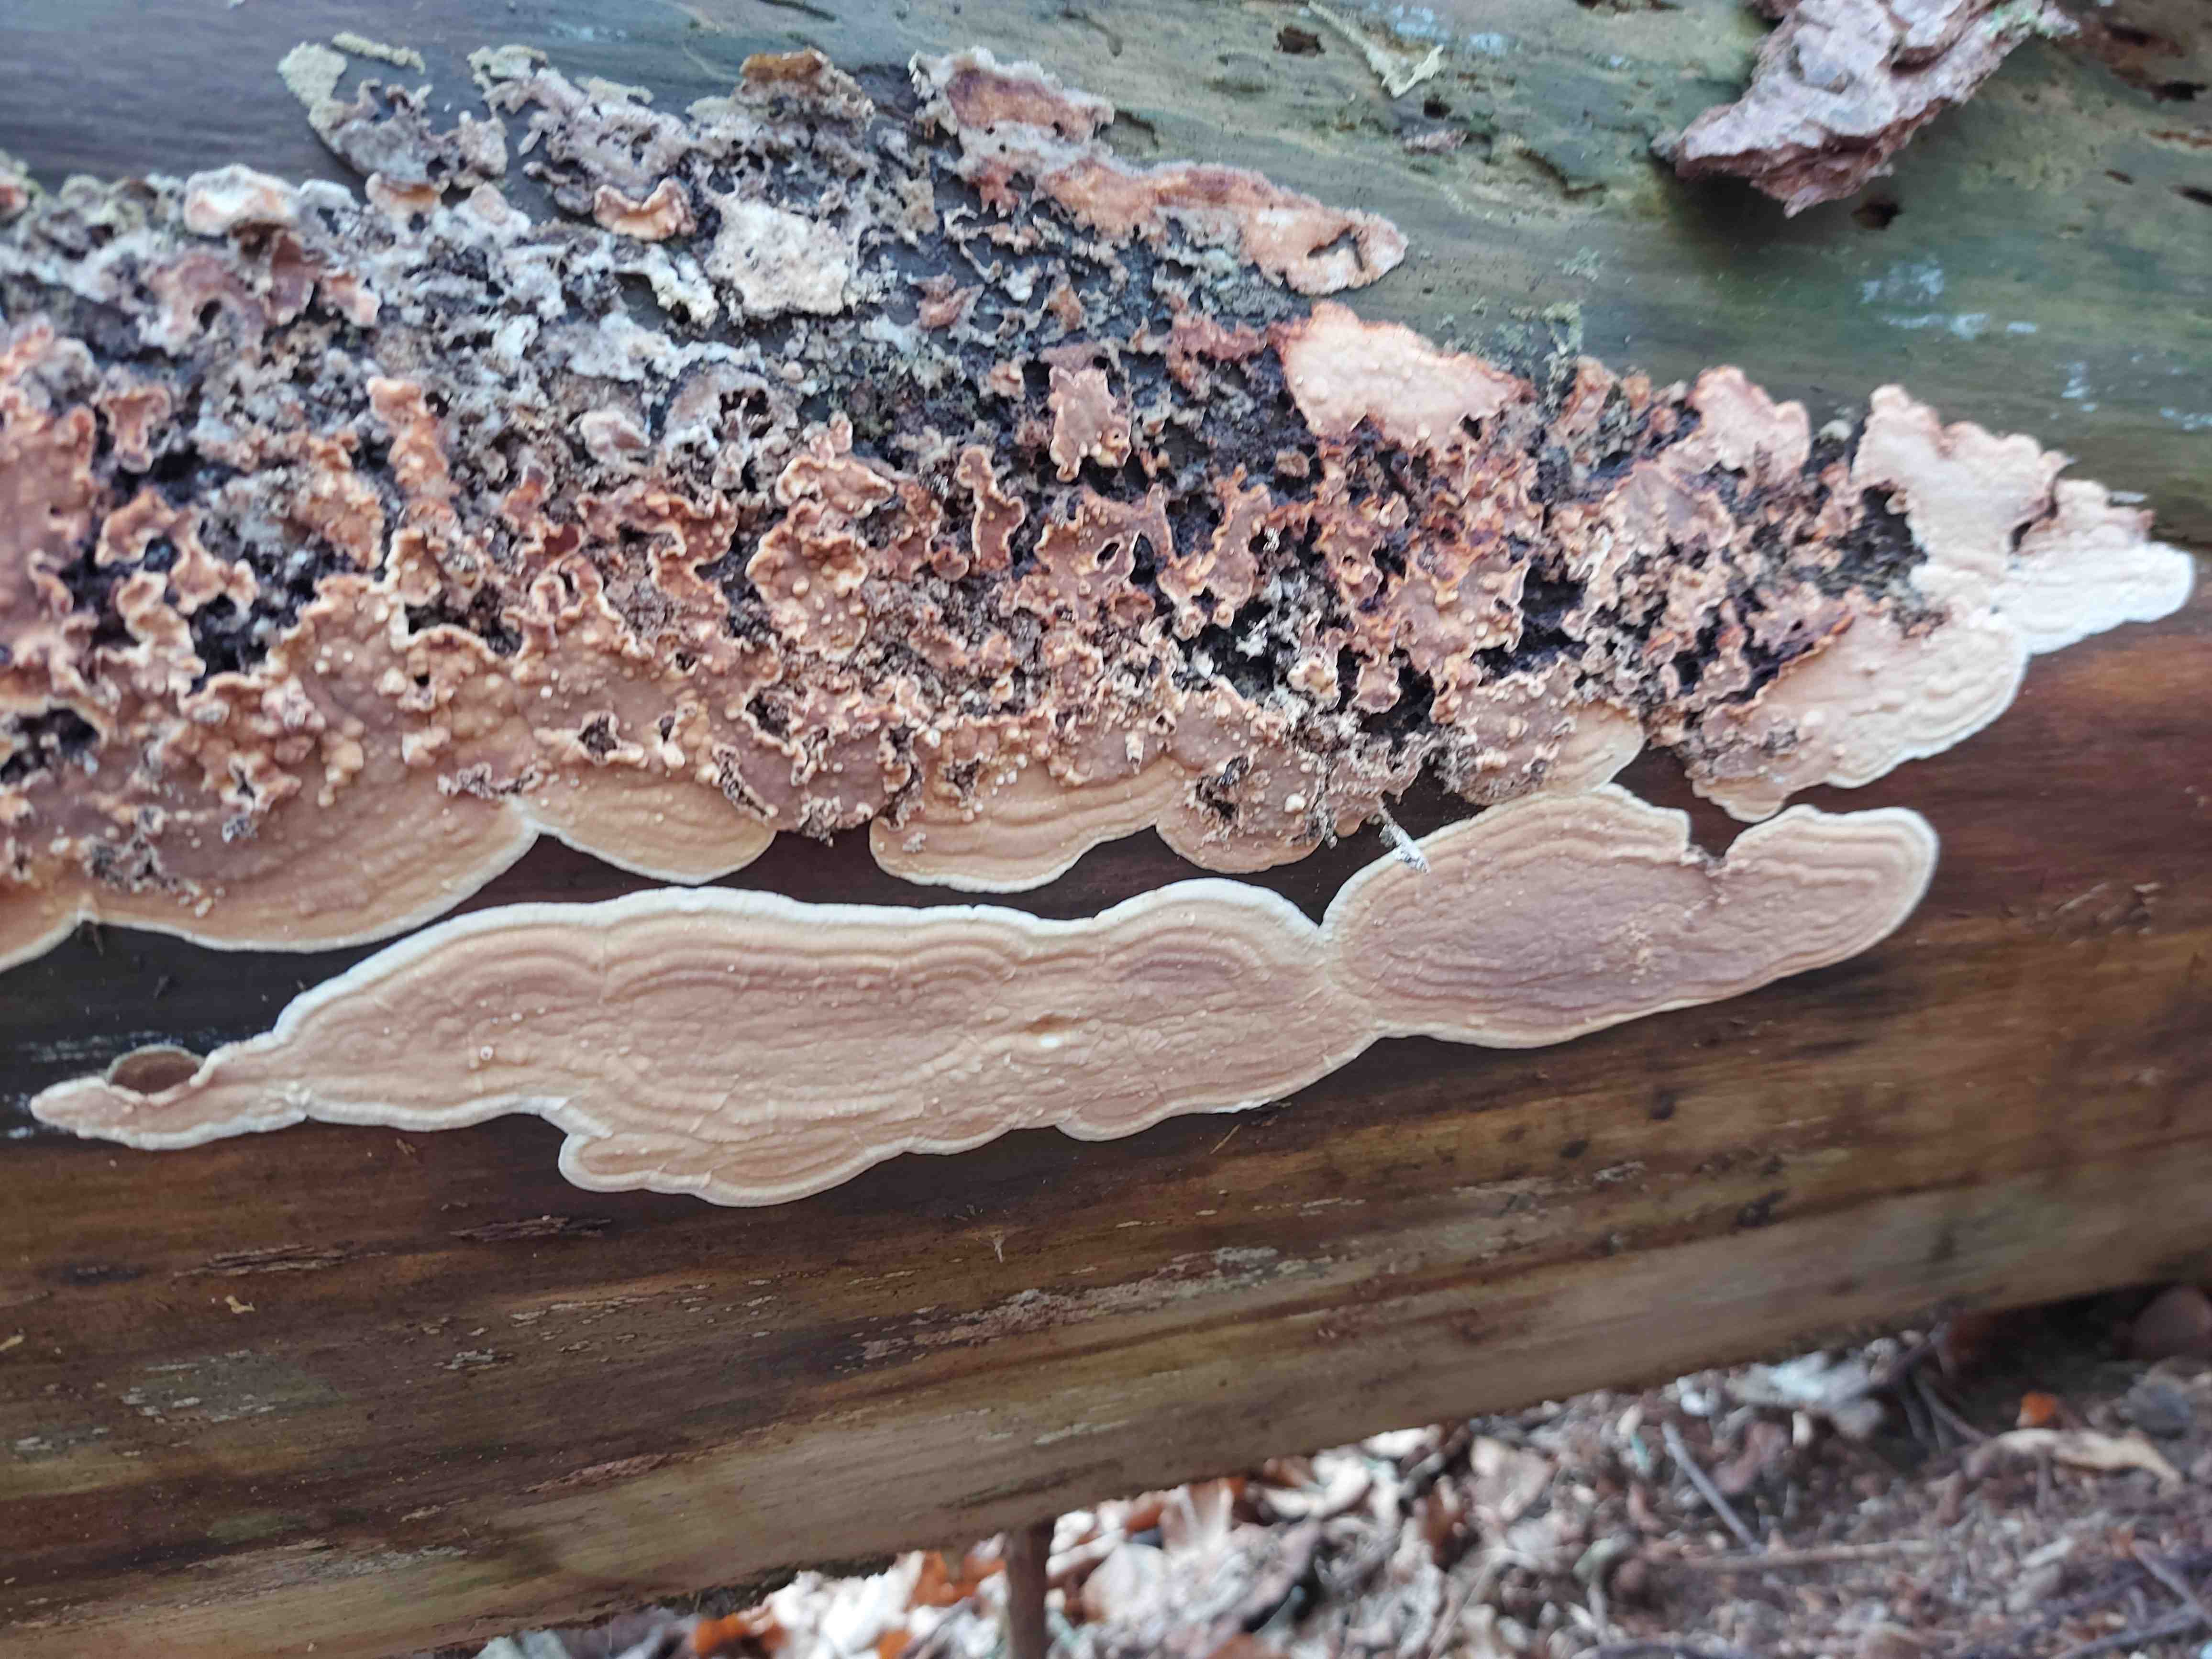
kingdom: Fungi
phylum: Basidiomycota
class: Agaricomycetes
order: Polyporales
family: Dacryobolaceae
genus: Dacryobolus
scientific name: Dacryobolus karstenii
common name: glat vulkanskorpe
